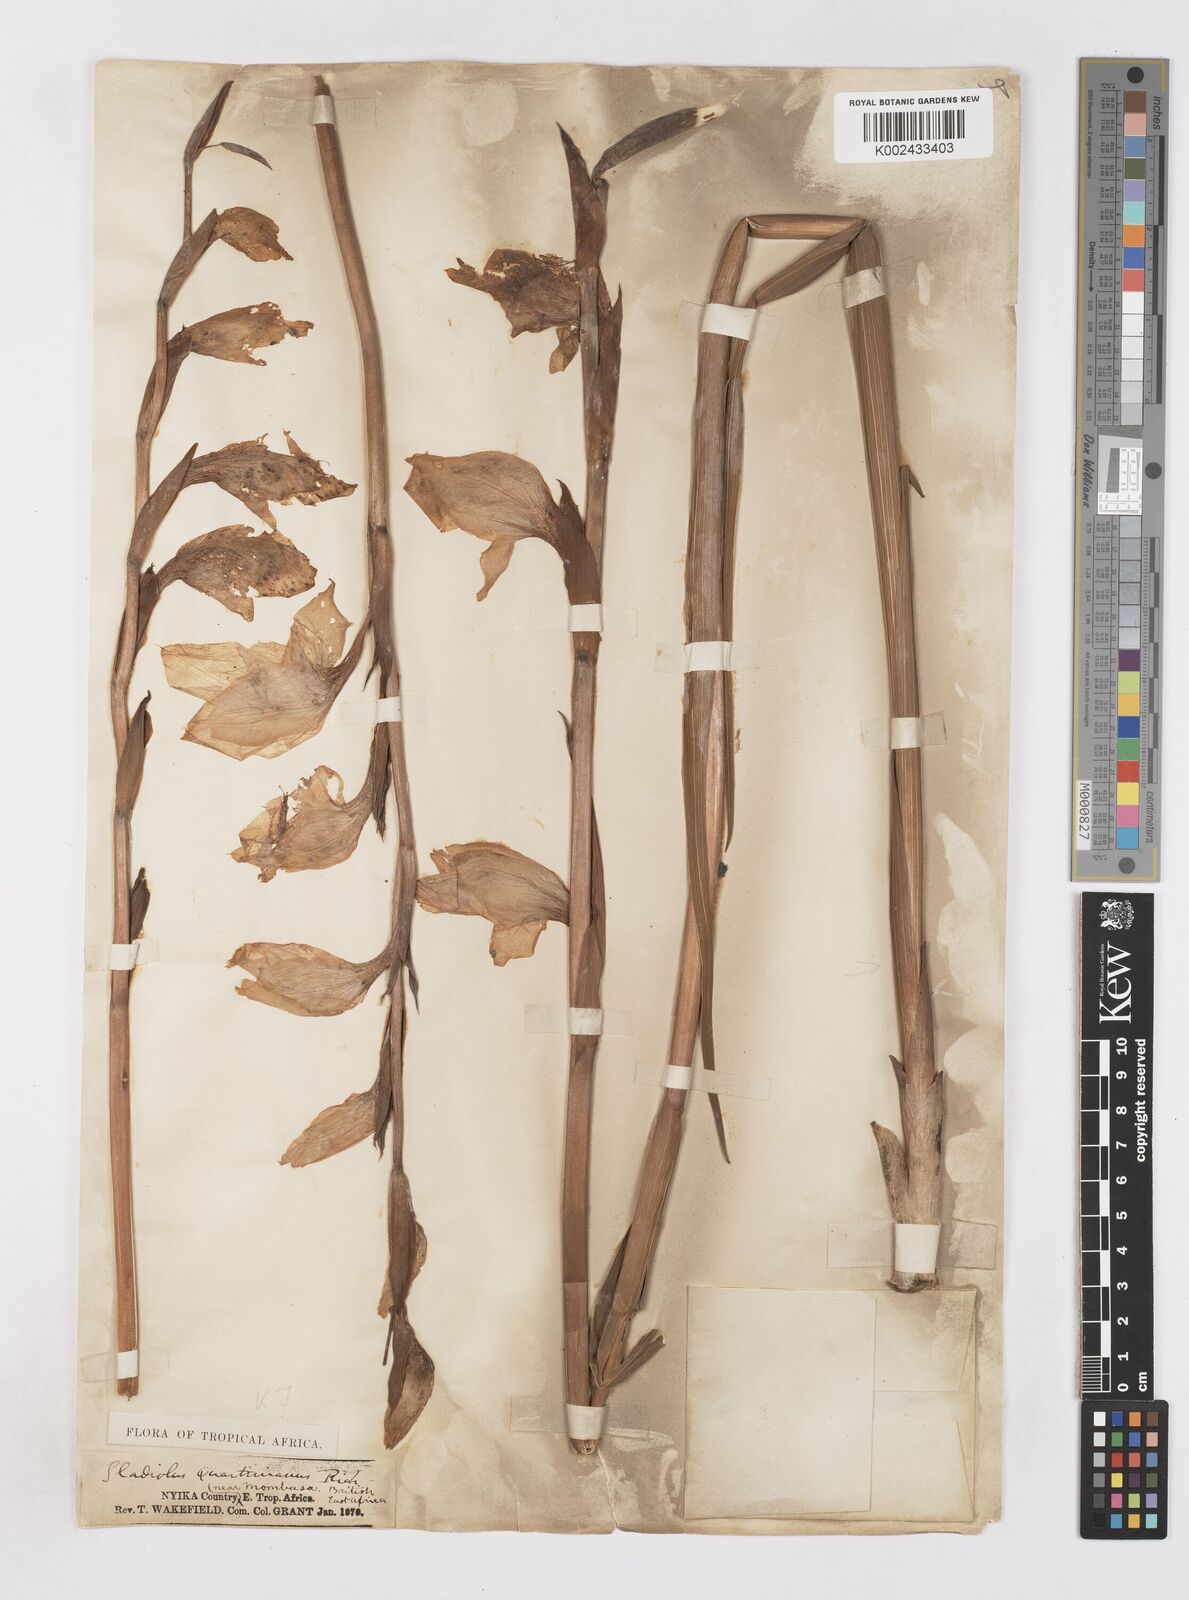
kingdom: Plantae
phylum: Tracheophyta
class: Liliopsida
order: Asparagales
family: Iridaceae
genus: Gladiolus
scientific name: Gladiolus dalenii
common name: Cornflag
